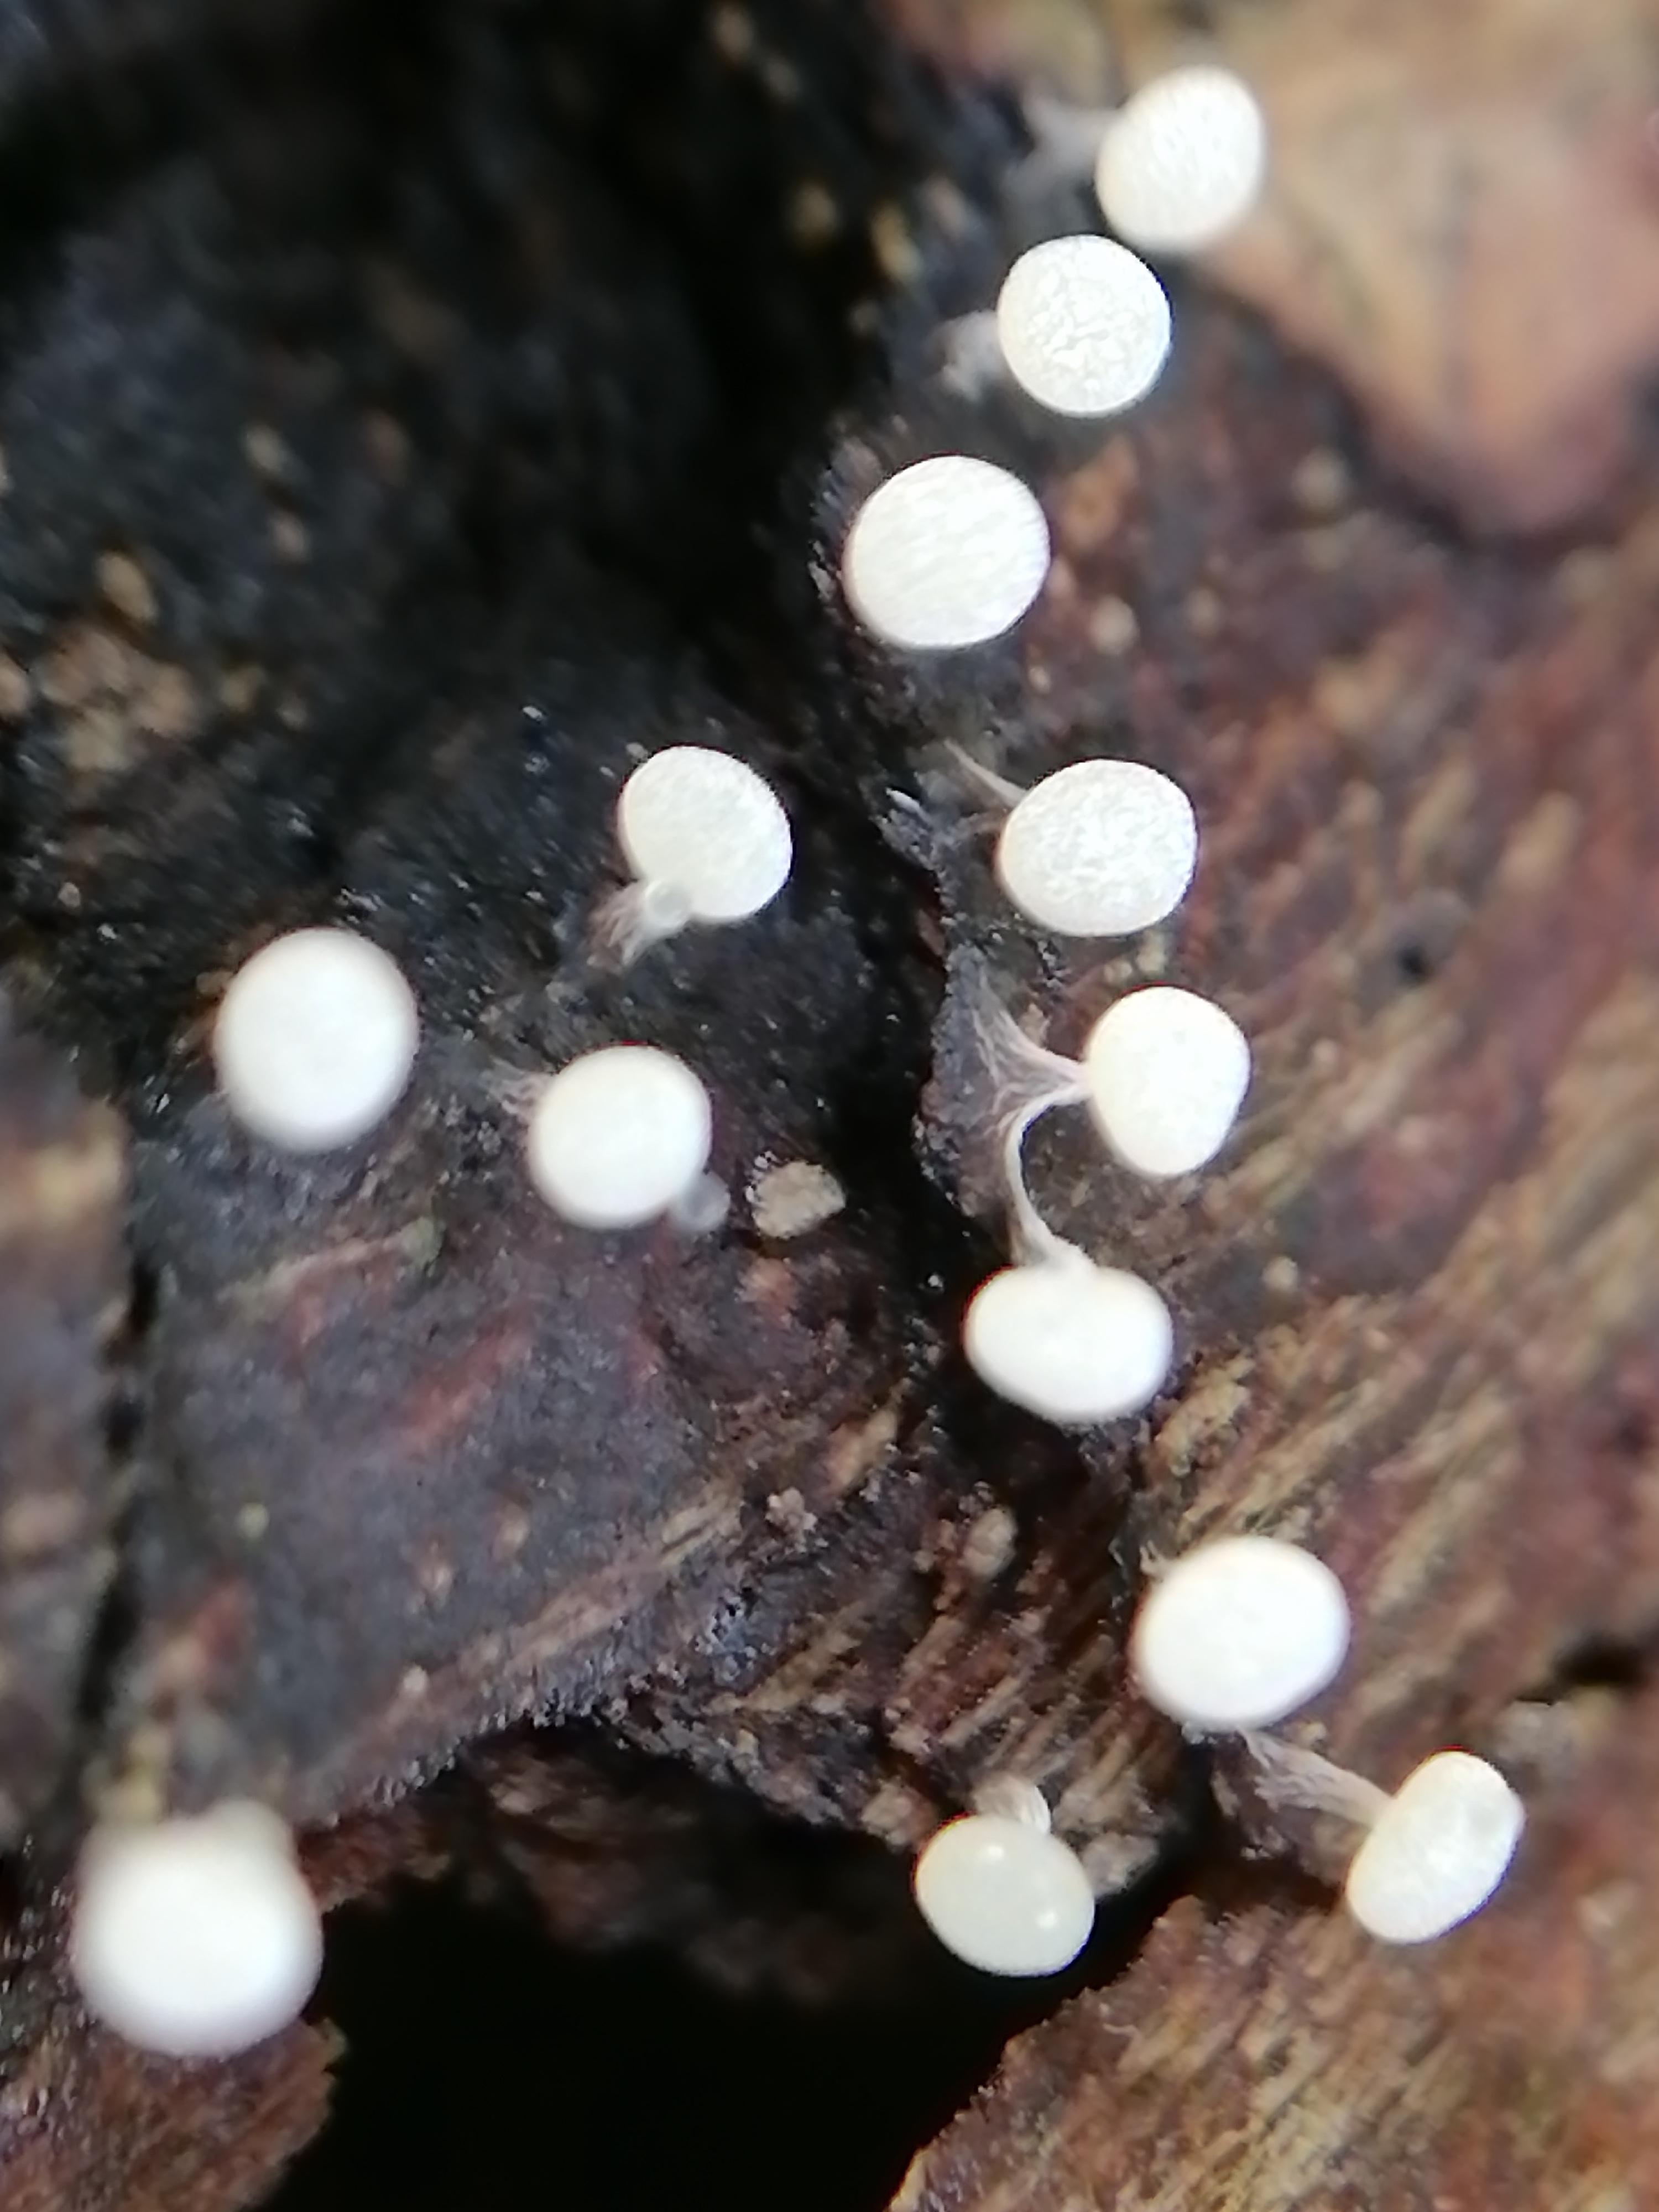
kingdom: Protozoa
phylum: Mycetozoa
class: Myxomycetes
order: Physarales
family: Physaraceae
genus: Physarum
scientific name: Physarum album
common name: nikkende støvknop
